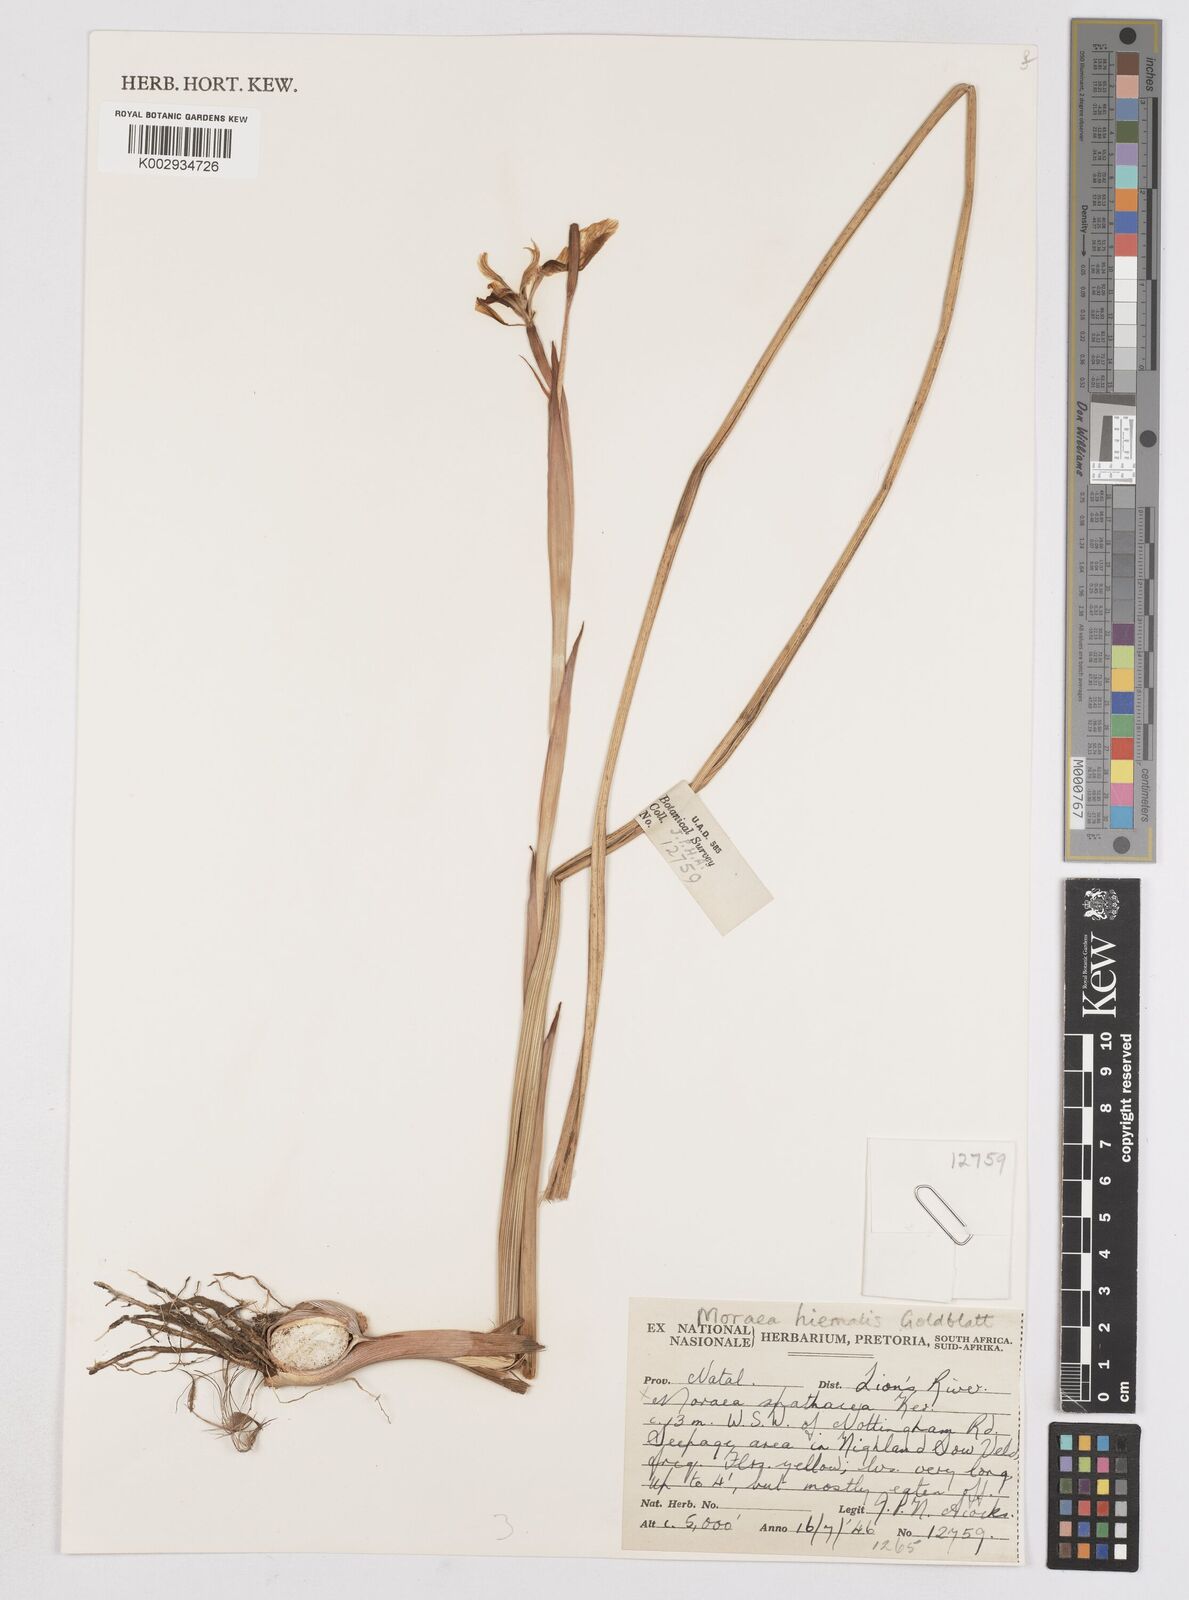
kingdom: Plantae
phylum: Tracheophyta
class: Liliopsida
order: Asparagales
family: Iridaceae
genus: Moraea
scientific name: Moraea hiemalis
